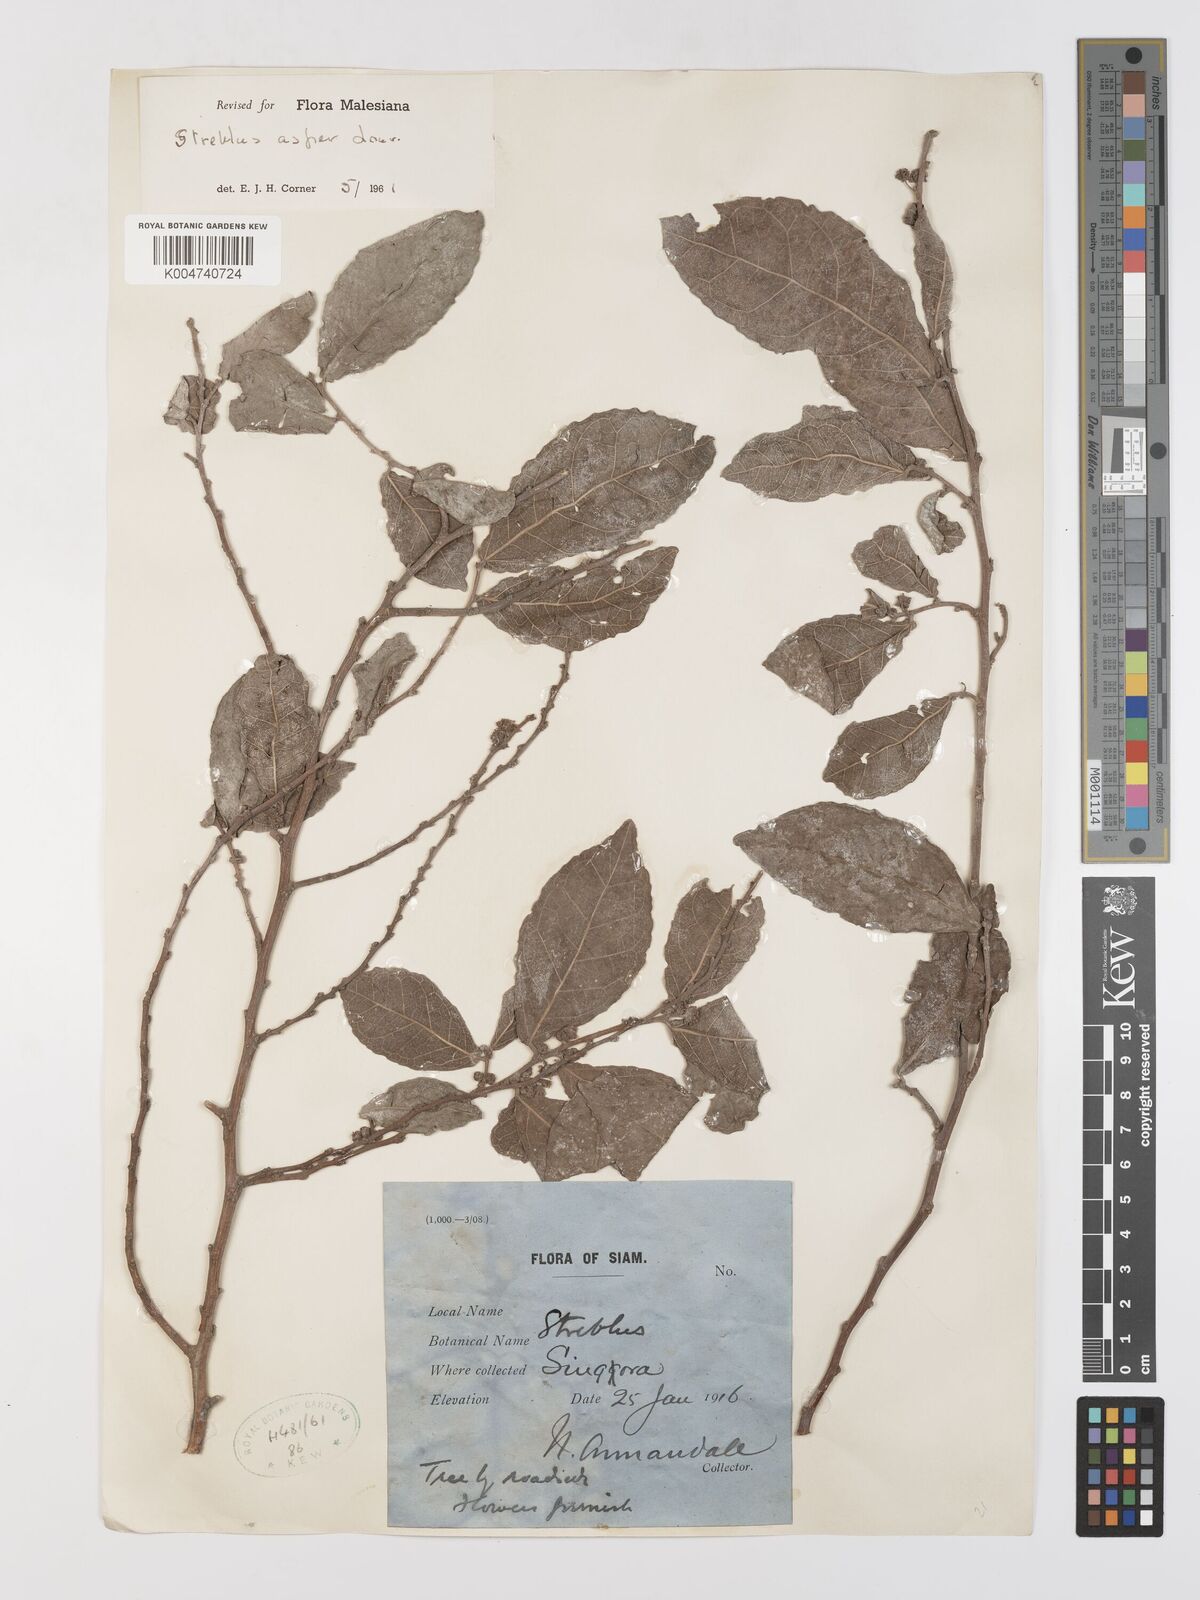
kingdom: Plantae
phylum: Tracheophyta
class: Magnoliopsida
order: Rosales
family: Moraceae
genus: Streblus
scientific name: Streblus asper
